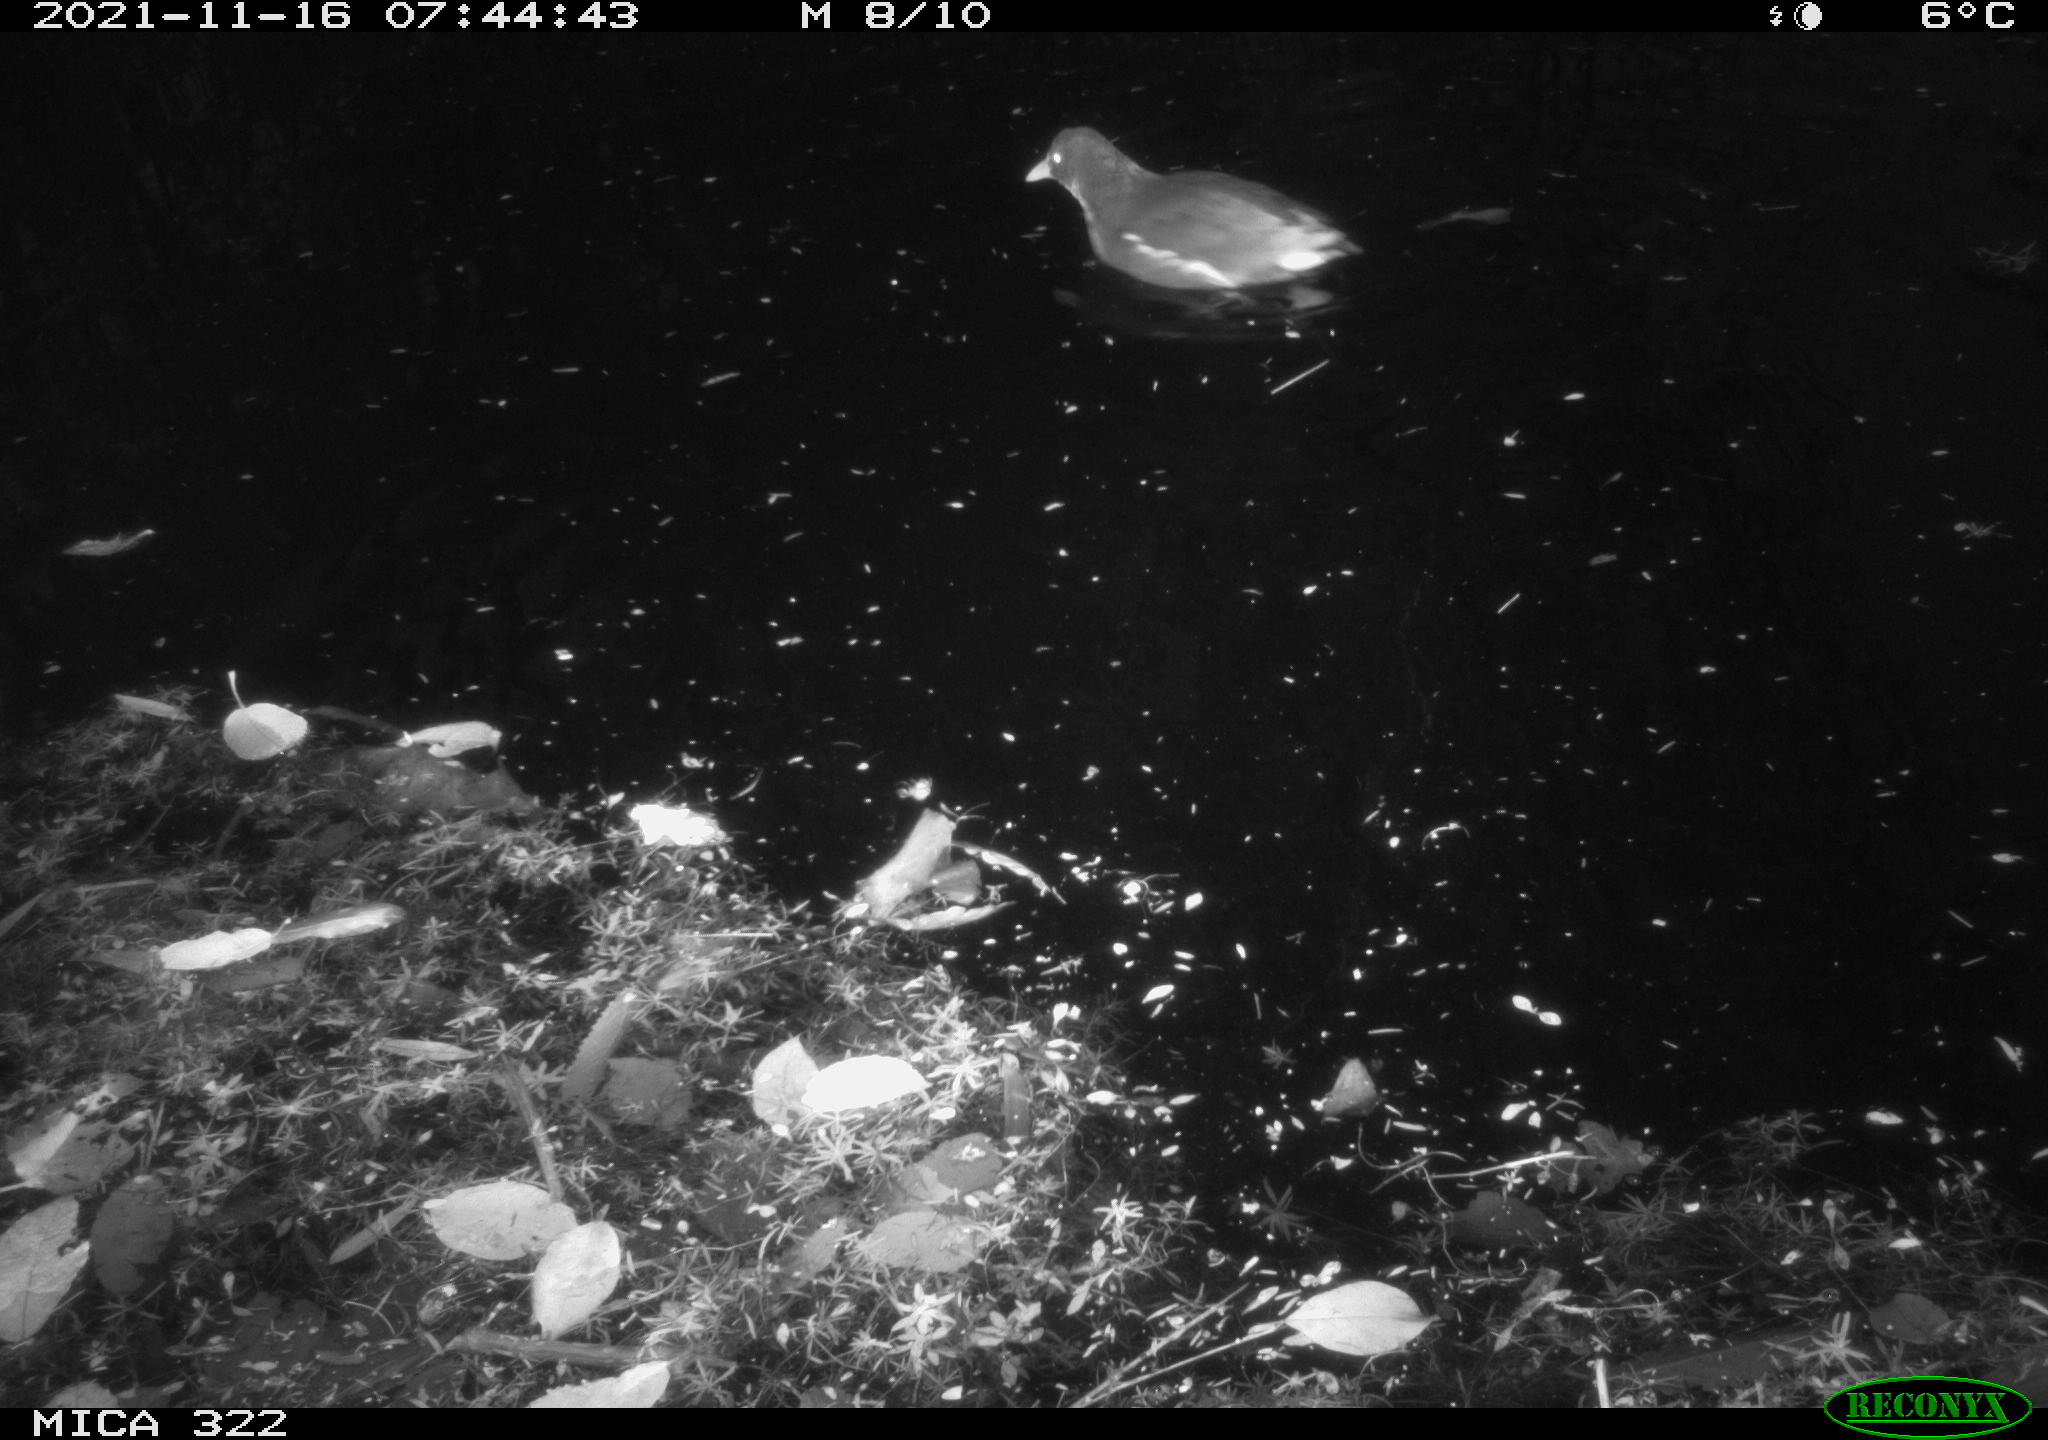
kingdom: Animalia
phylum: Chordata
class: Aves
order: Gruiformes
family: Rallidae
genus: Gallinula
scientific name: Gallinula chloropus
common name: Common moorhen
